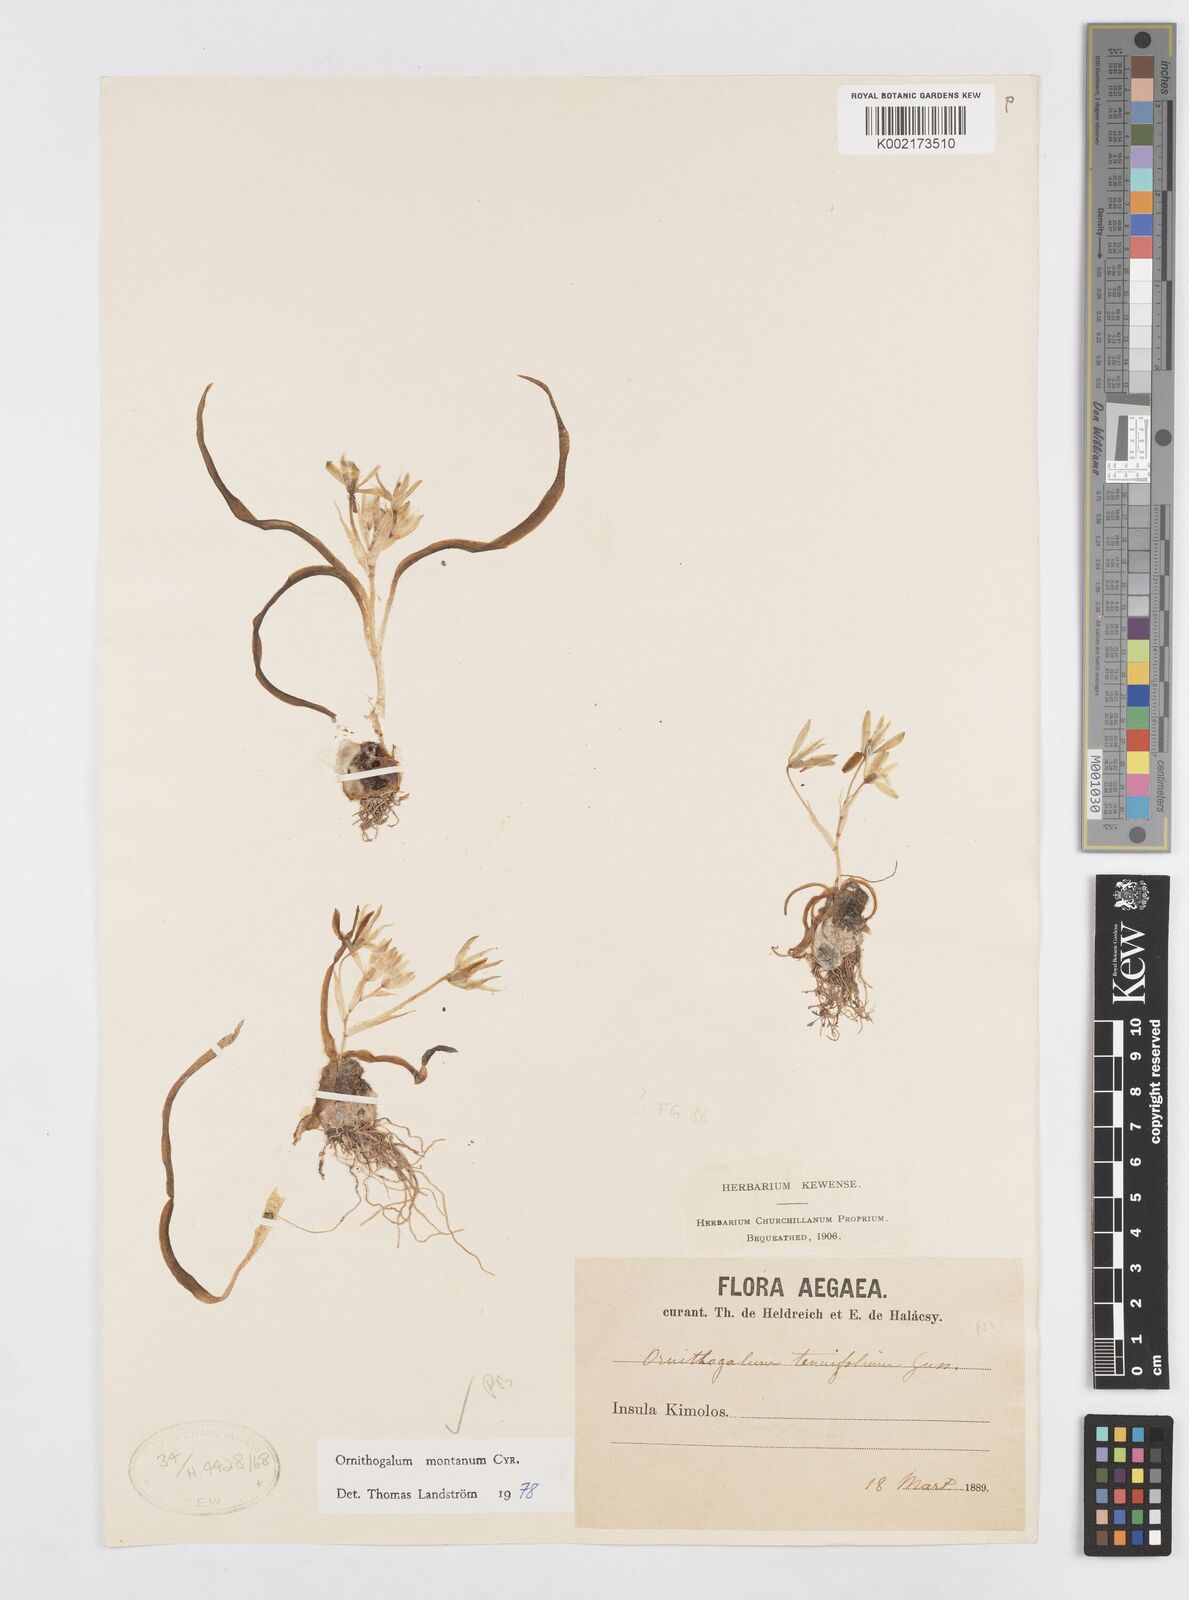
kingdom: Plantae
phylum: Tracheophyta
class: Liliopsida
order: Asparagales
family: Asparagaceae
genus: Ornithogalum
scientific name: Ornithogalum montanum
